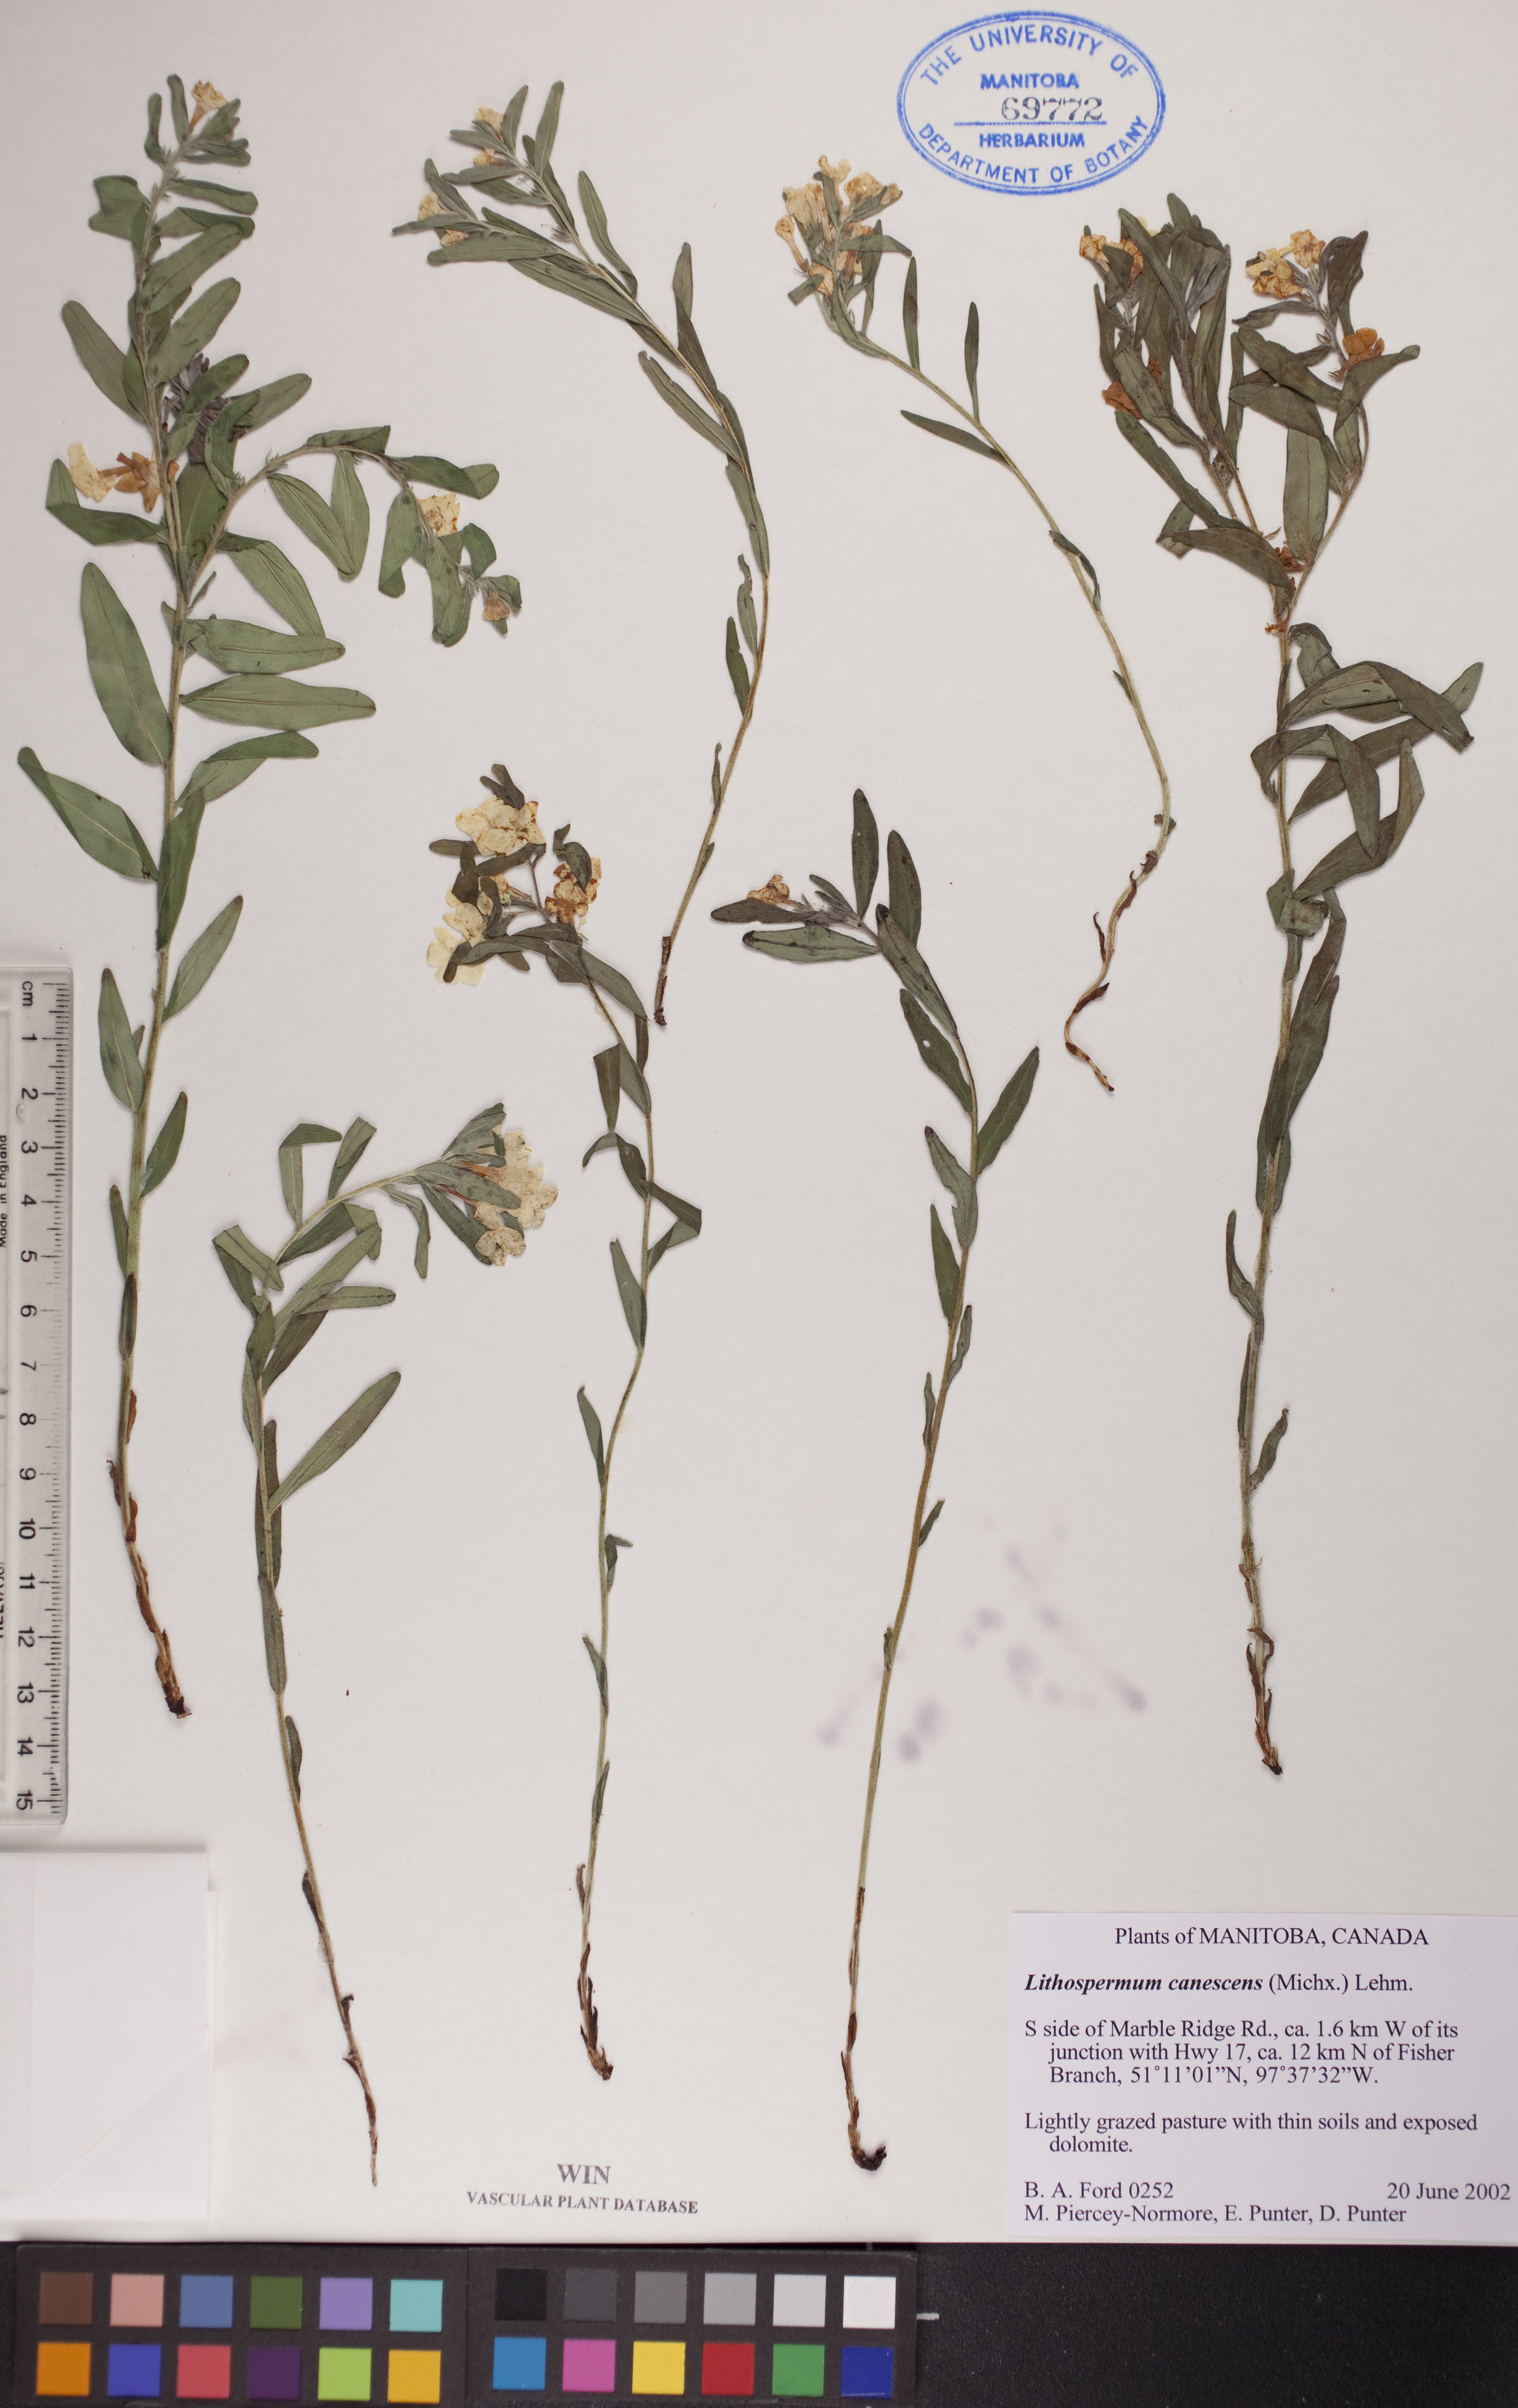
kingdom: Plantae
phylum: Tracheophyta
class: Magnoliopsida
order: Boraginales
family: Boraginaceae
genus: Lithospermum
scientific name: Lithospermum canescens
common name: Hoary puccoon
